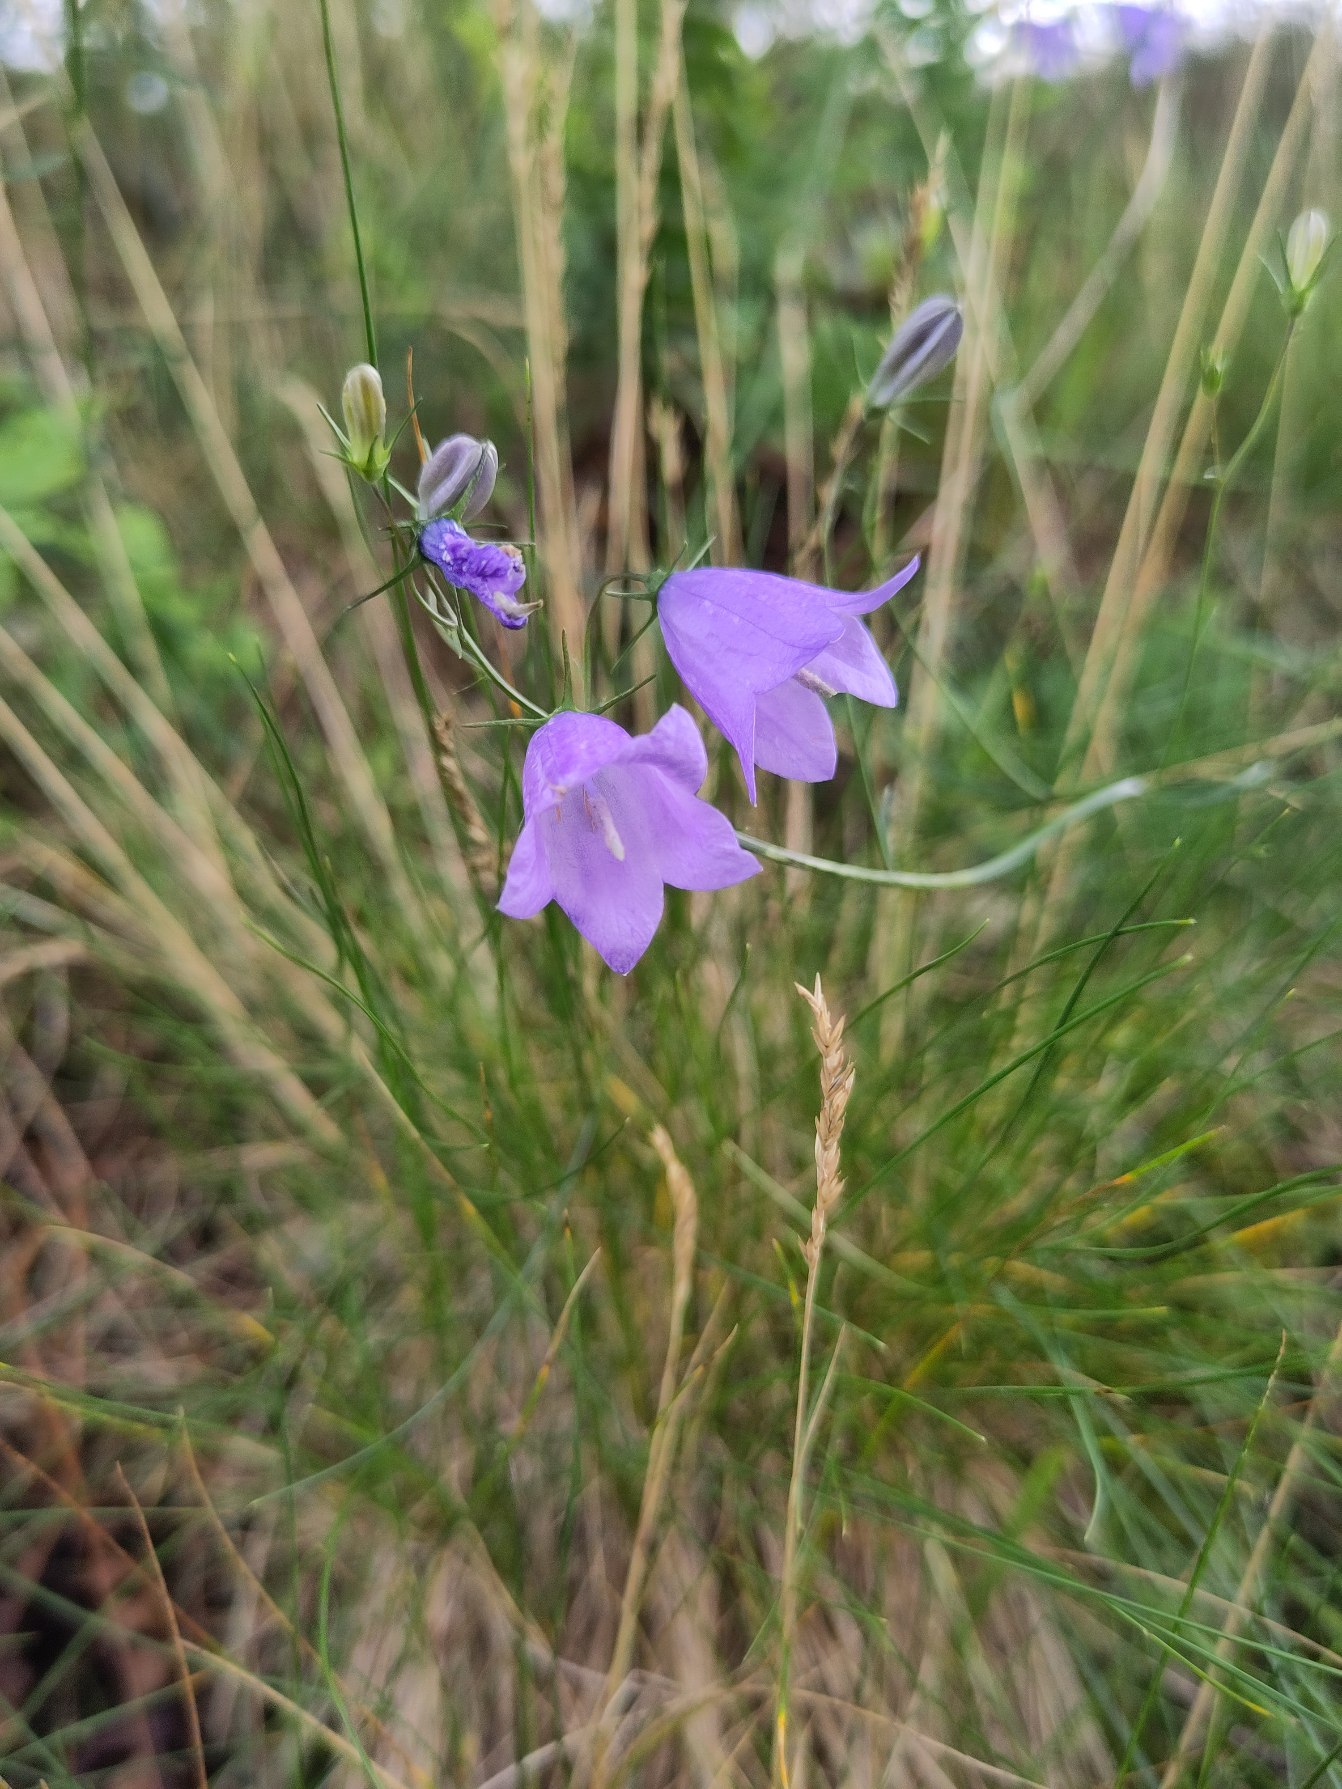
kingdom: Plantae
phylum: Tracheophyta
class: Magnoliopsida
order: Asterales
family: Campanulaceae
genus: Campanula
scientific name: Campanula rotundifolia
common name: Liden klokke
